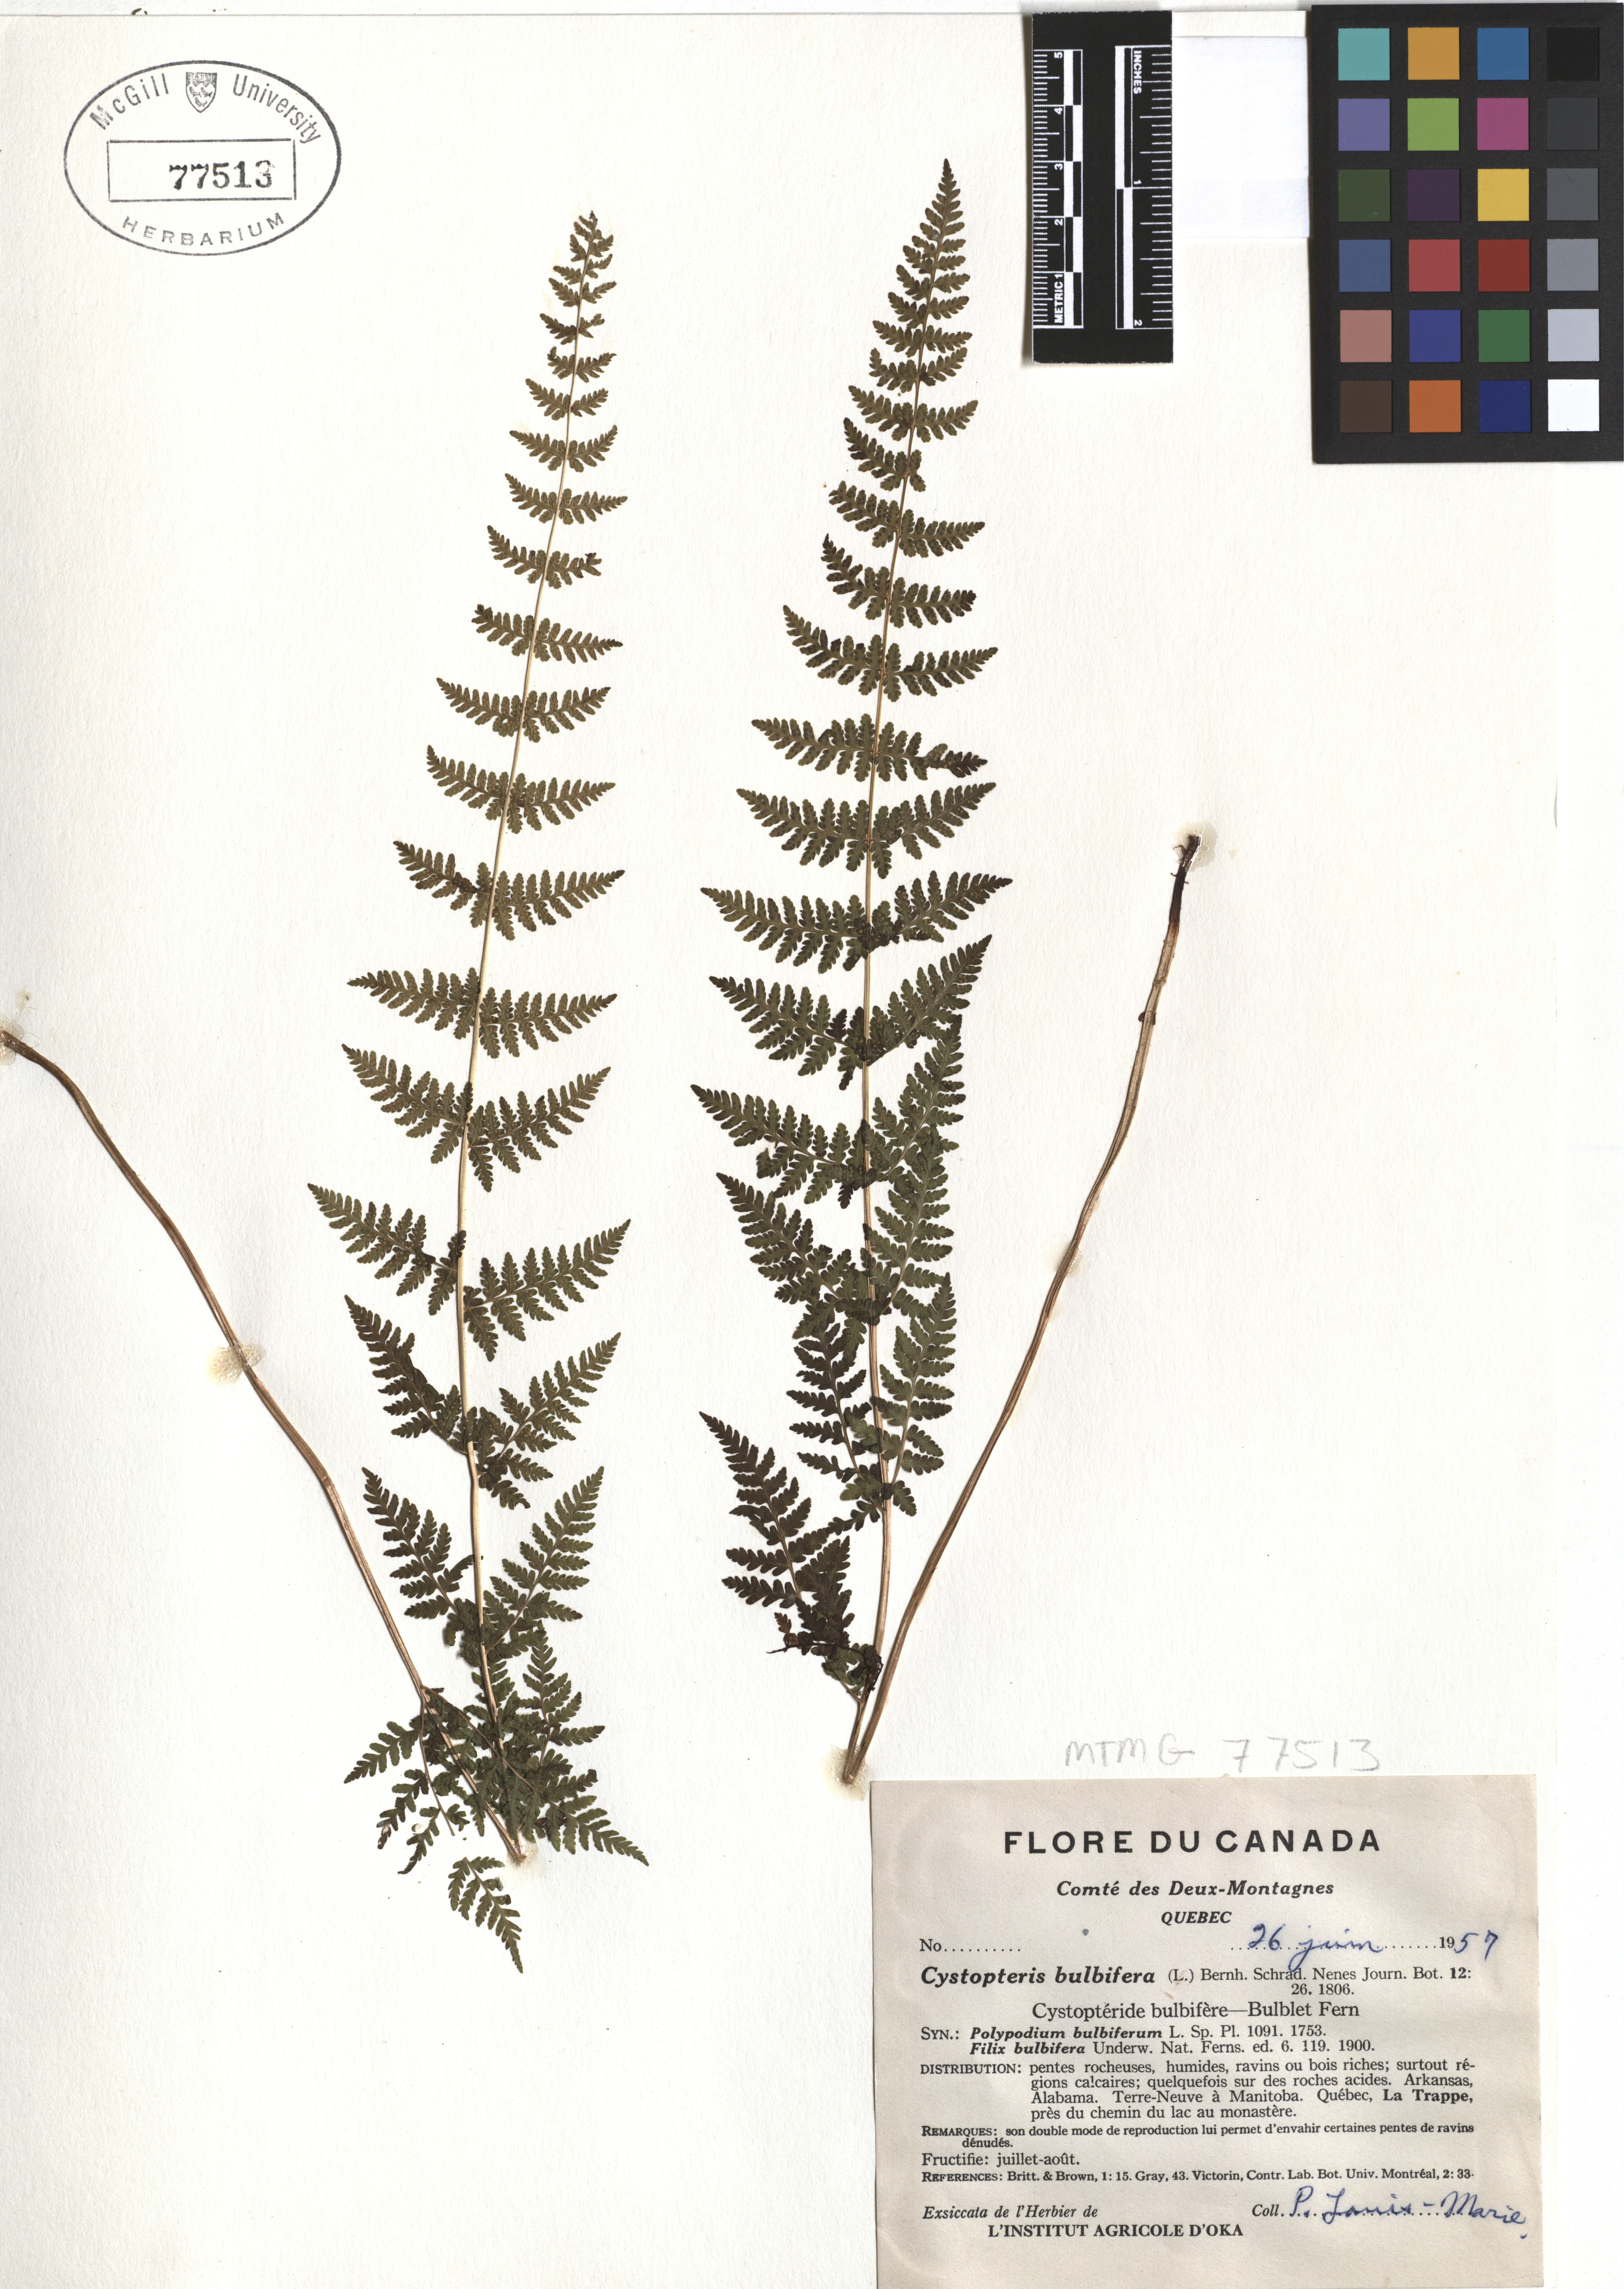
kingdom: Plantae
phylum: Tracheophyta
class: Polypodiopsida
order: Polypodiales
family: Cystopteridaceae
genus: Cystopteris
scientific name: Cystopteris bulbifera
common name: Bulblet bladder fern
